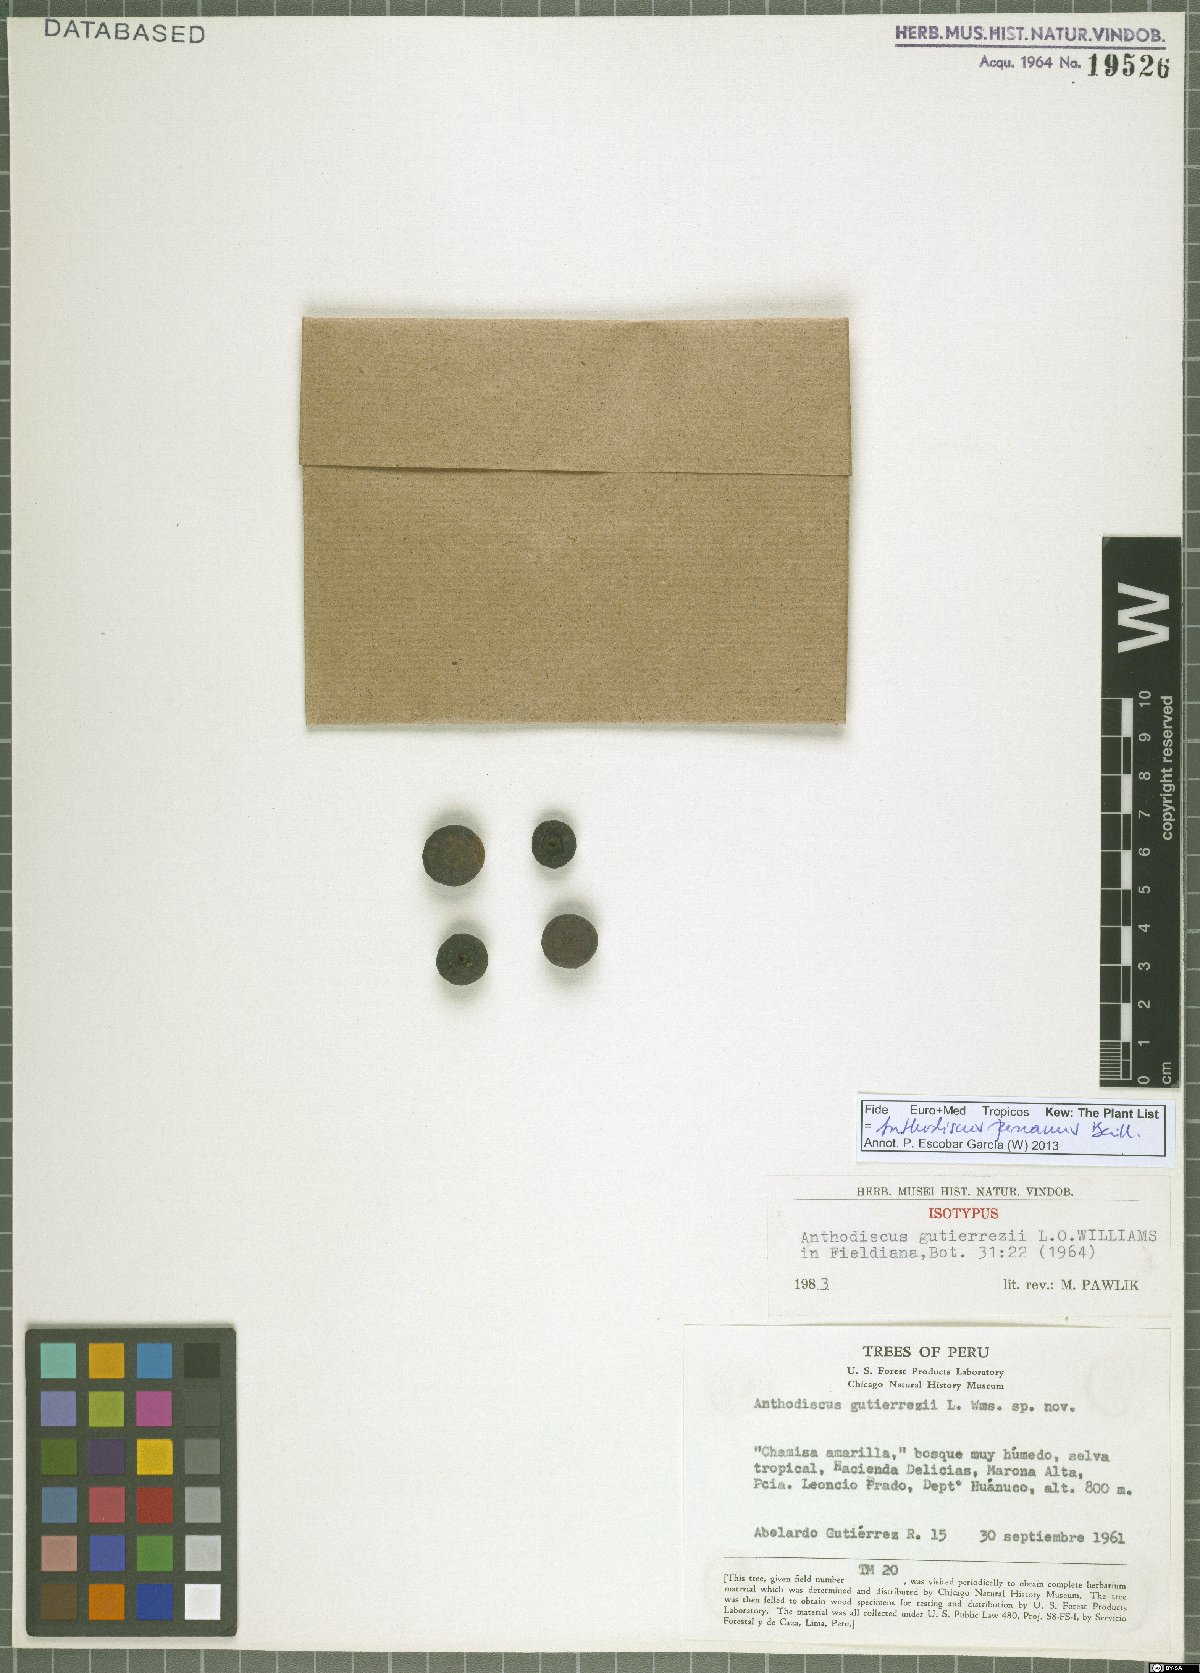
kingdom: Plantae
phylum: Tracheophyta
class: Magnoliopsida
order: Malpighiales
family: Caryocaraceae
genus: Anthodiscus
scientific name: Anthodiscus peruanus
